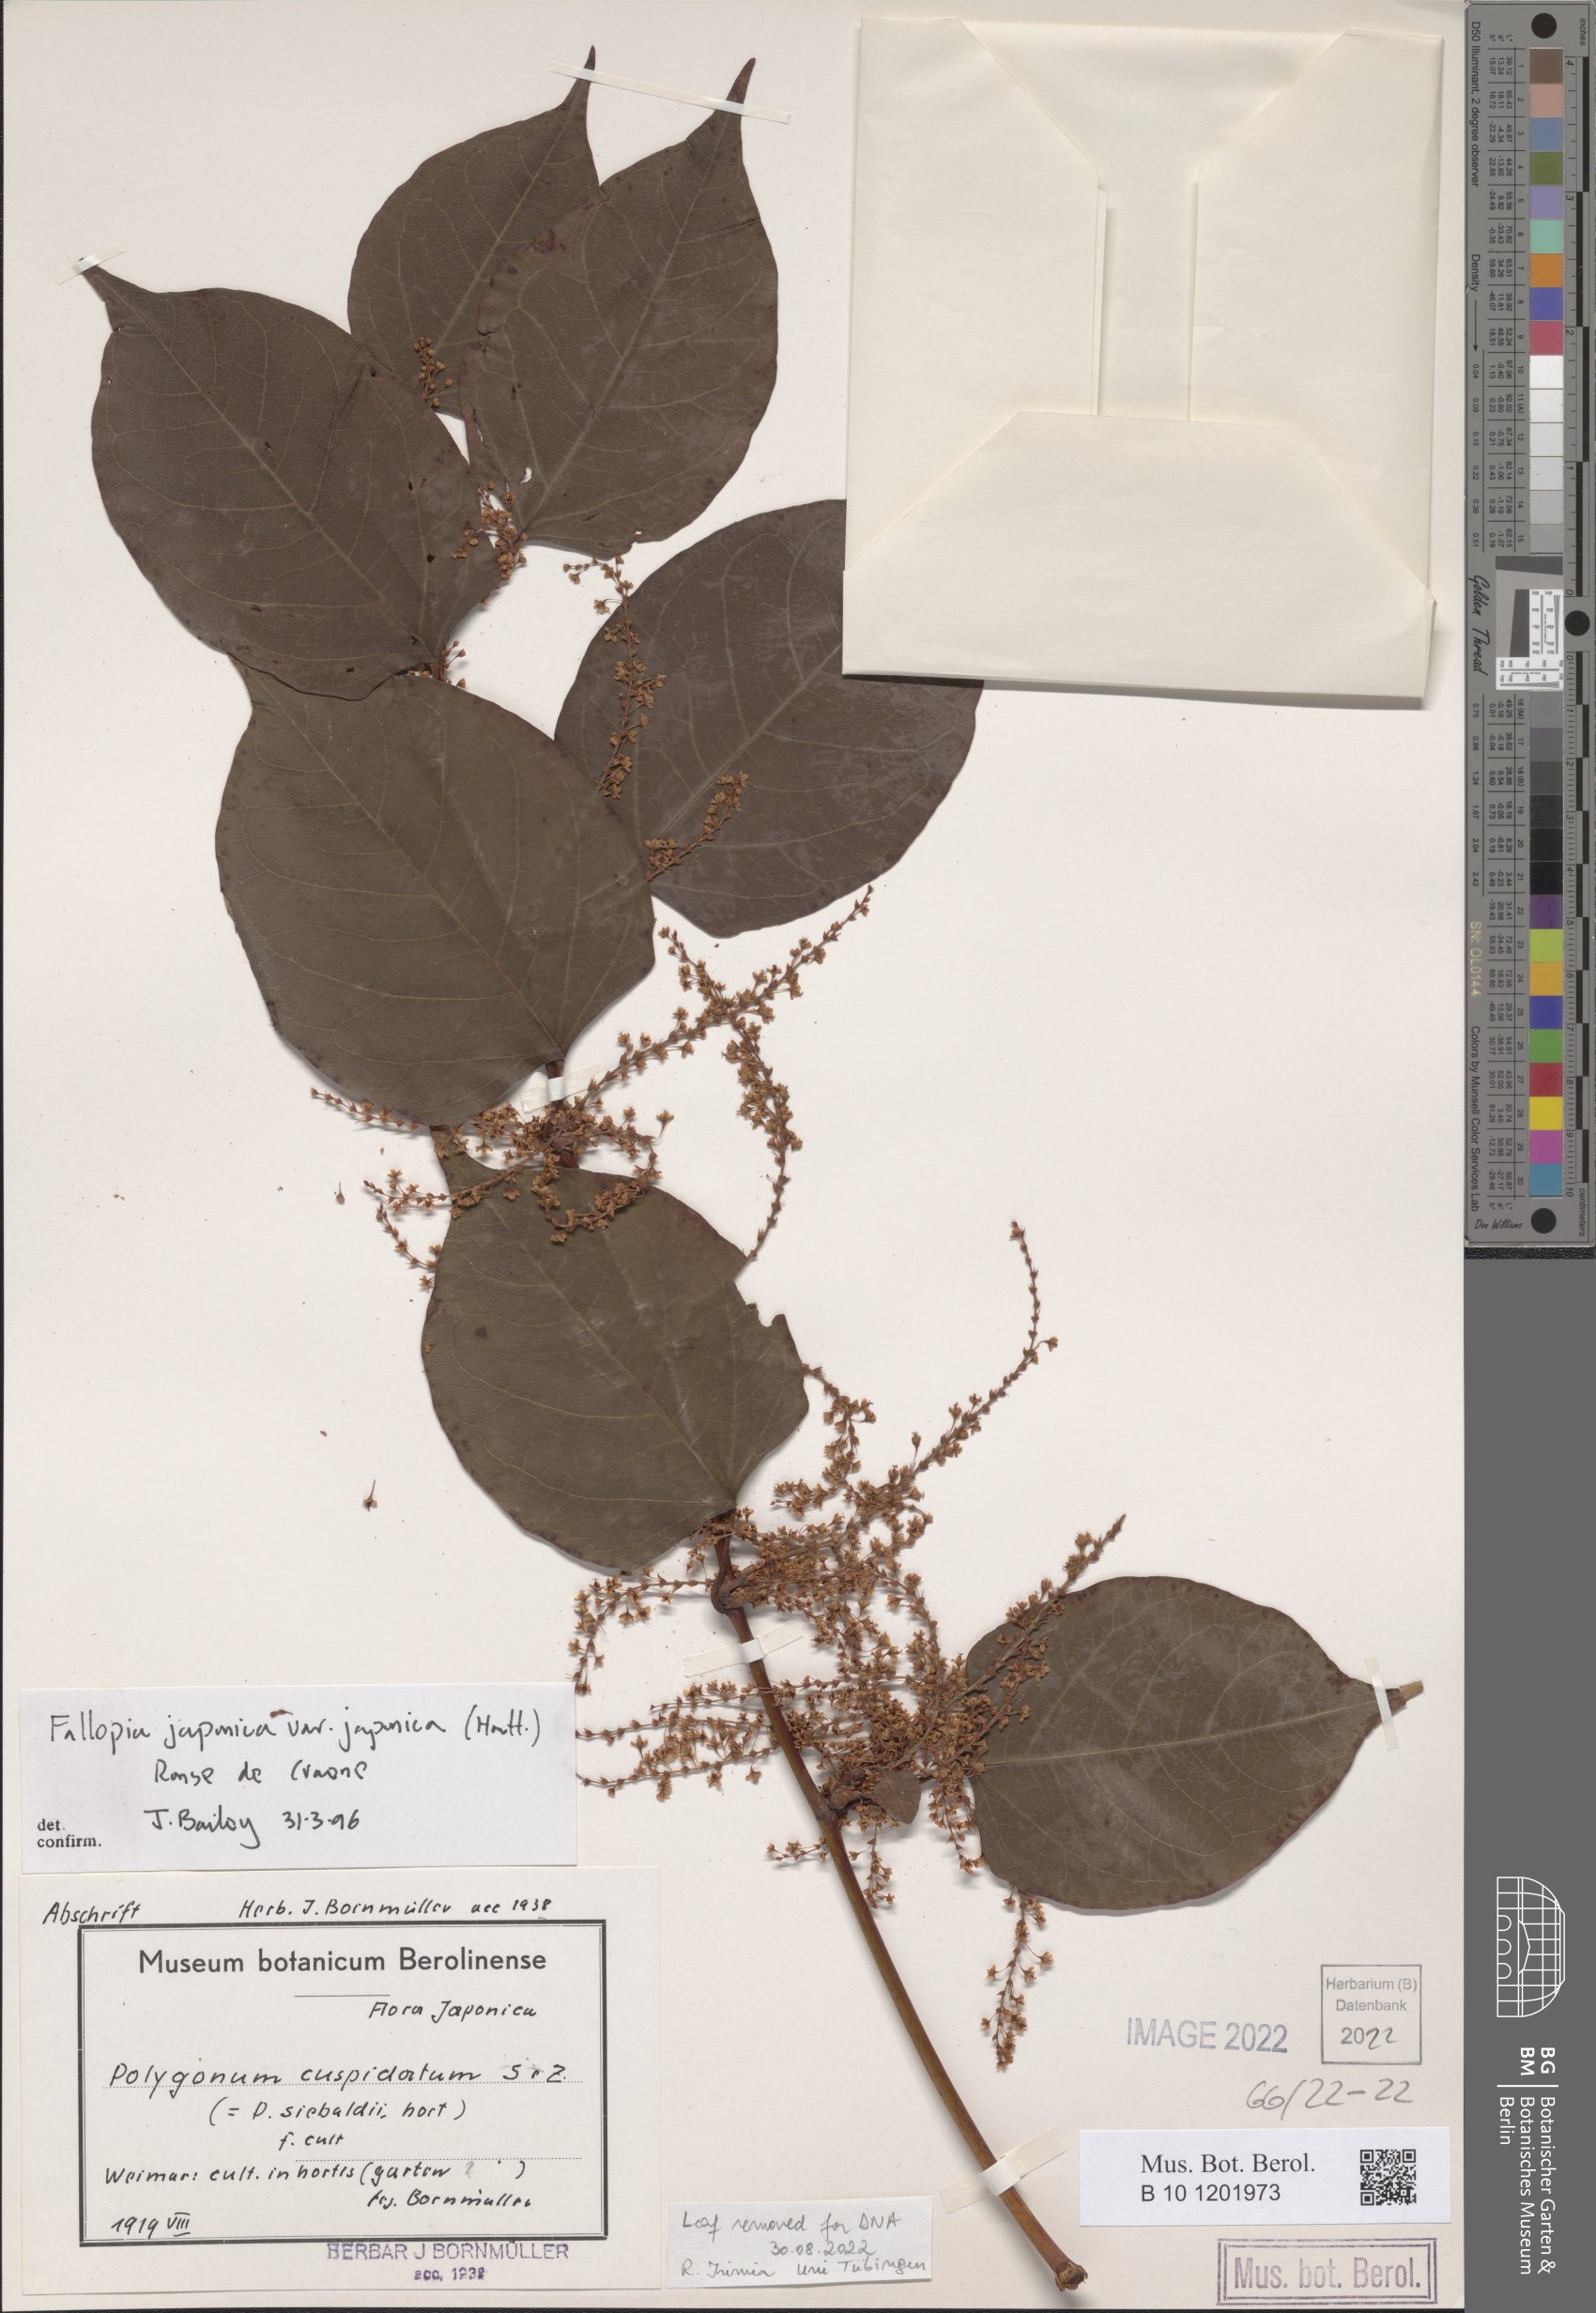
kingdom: Plantae
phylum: Tracheophyta
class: Magnoliopsida
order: Caryophyllales
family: Polygonaceae
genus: Reynoutria
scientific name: Reynoutria japonica
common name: Japanese knotweed
